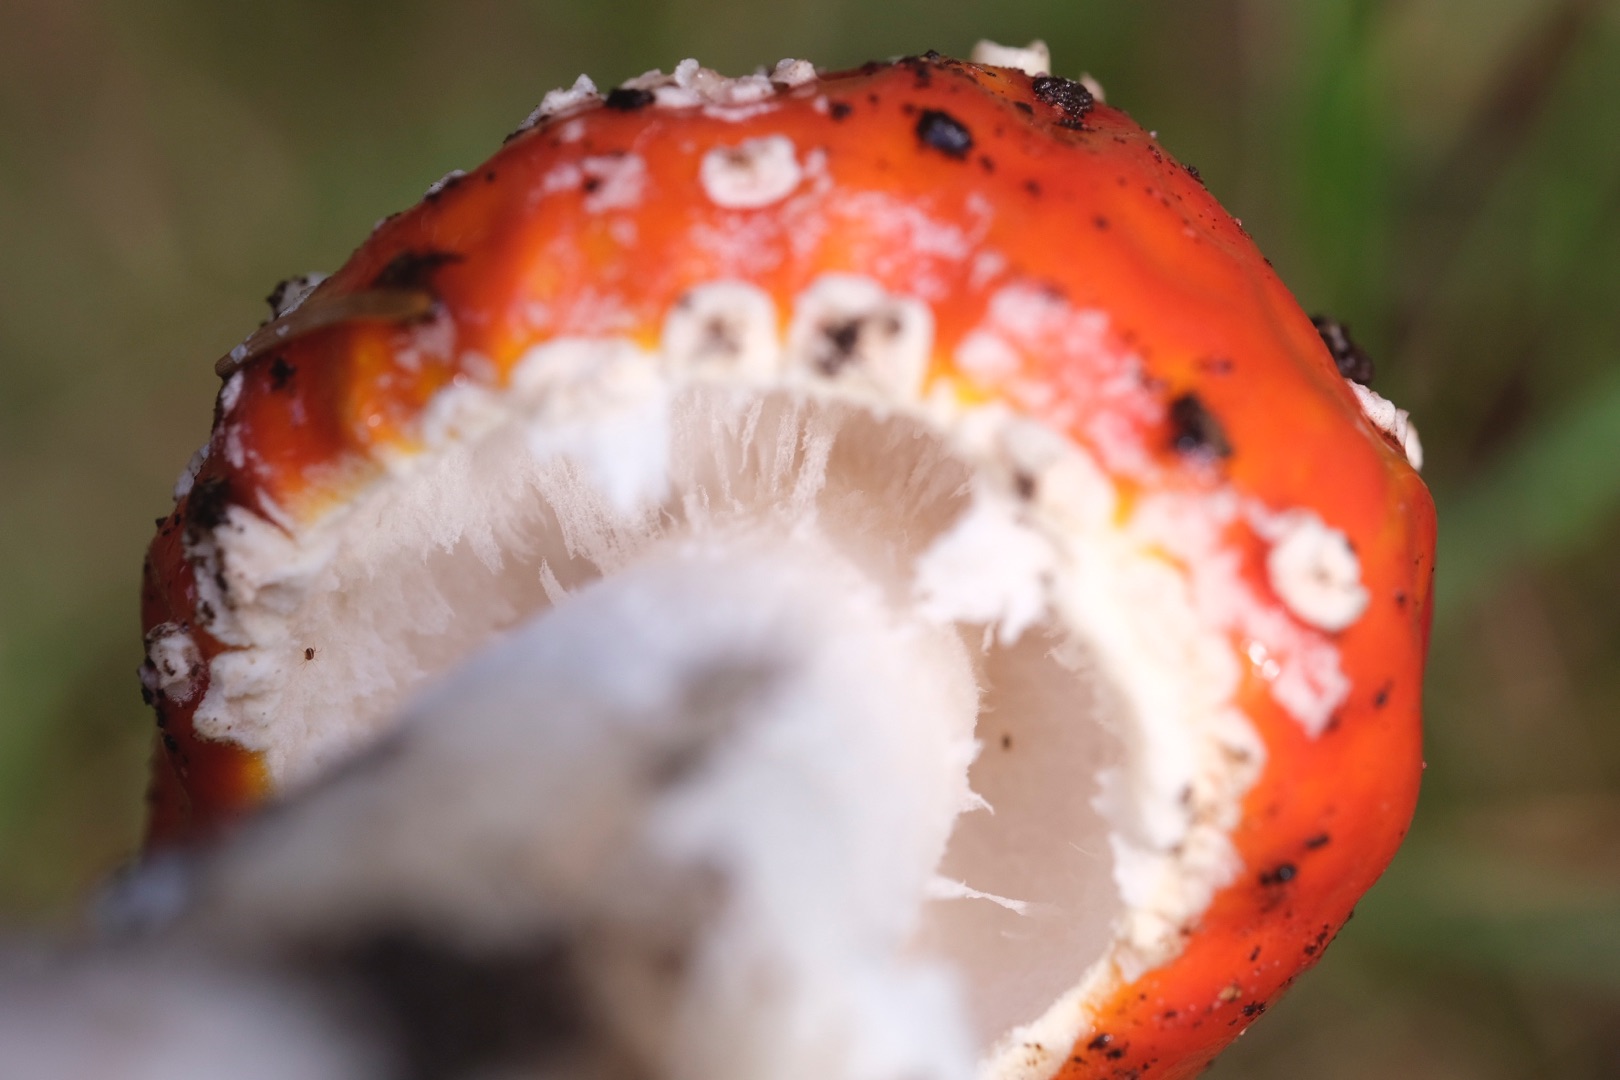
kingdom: Fungi
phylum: Basidiomycota
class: Agaricomycetes
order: Agaricales
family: Amanitaceae
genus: Amanita
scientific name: Amanita muscaria
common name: Rød fluesvamp
